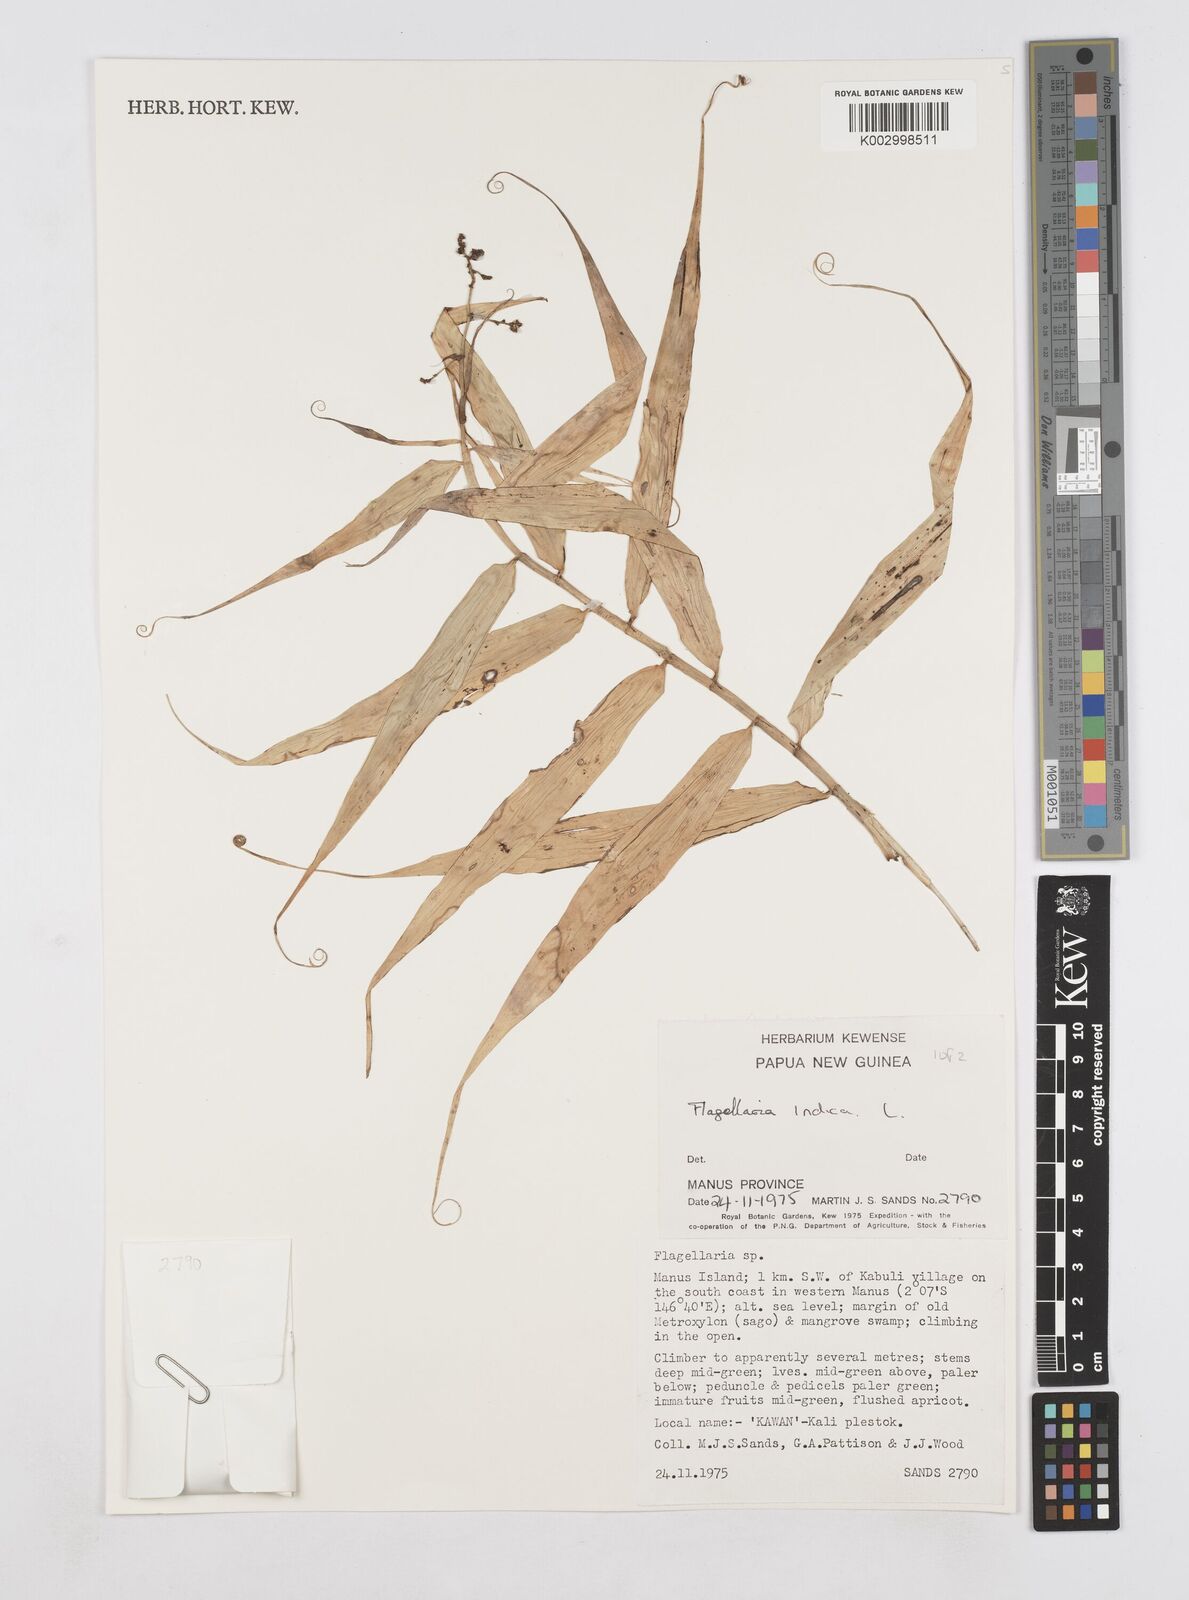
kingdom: Plantae
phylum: Tracheophyta
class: Liliopsida
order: Poales
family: Flagellariaceae
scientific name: Flagellariaceae
